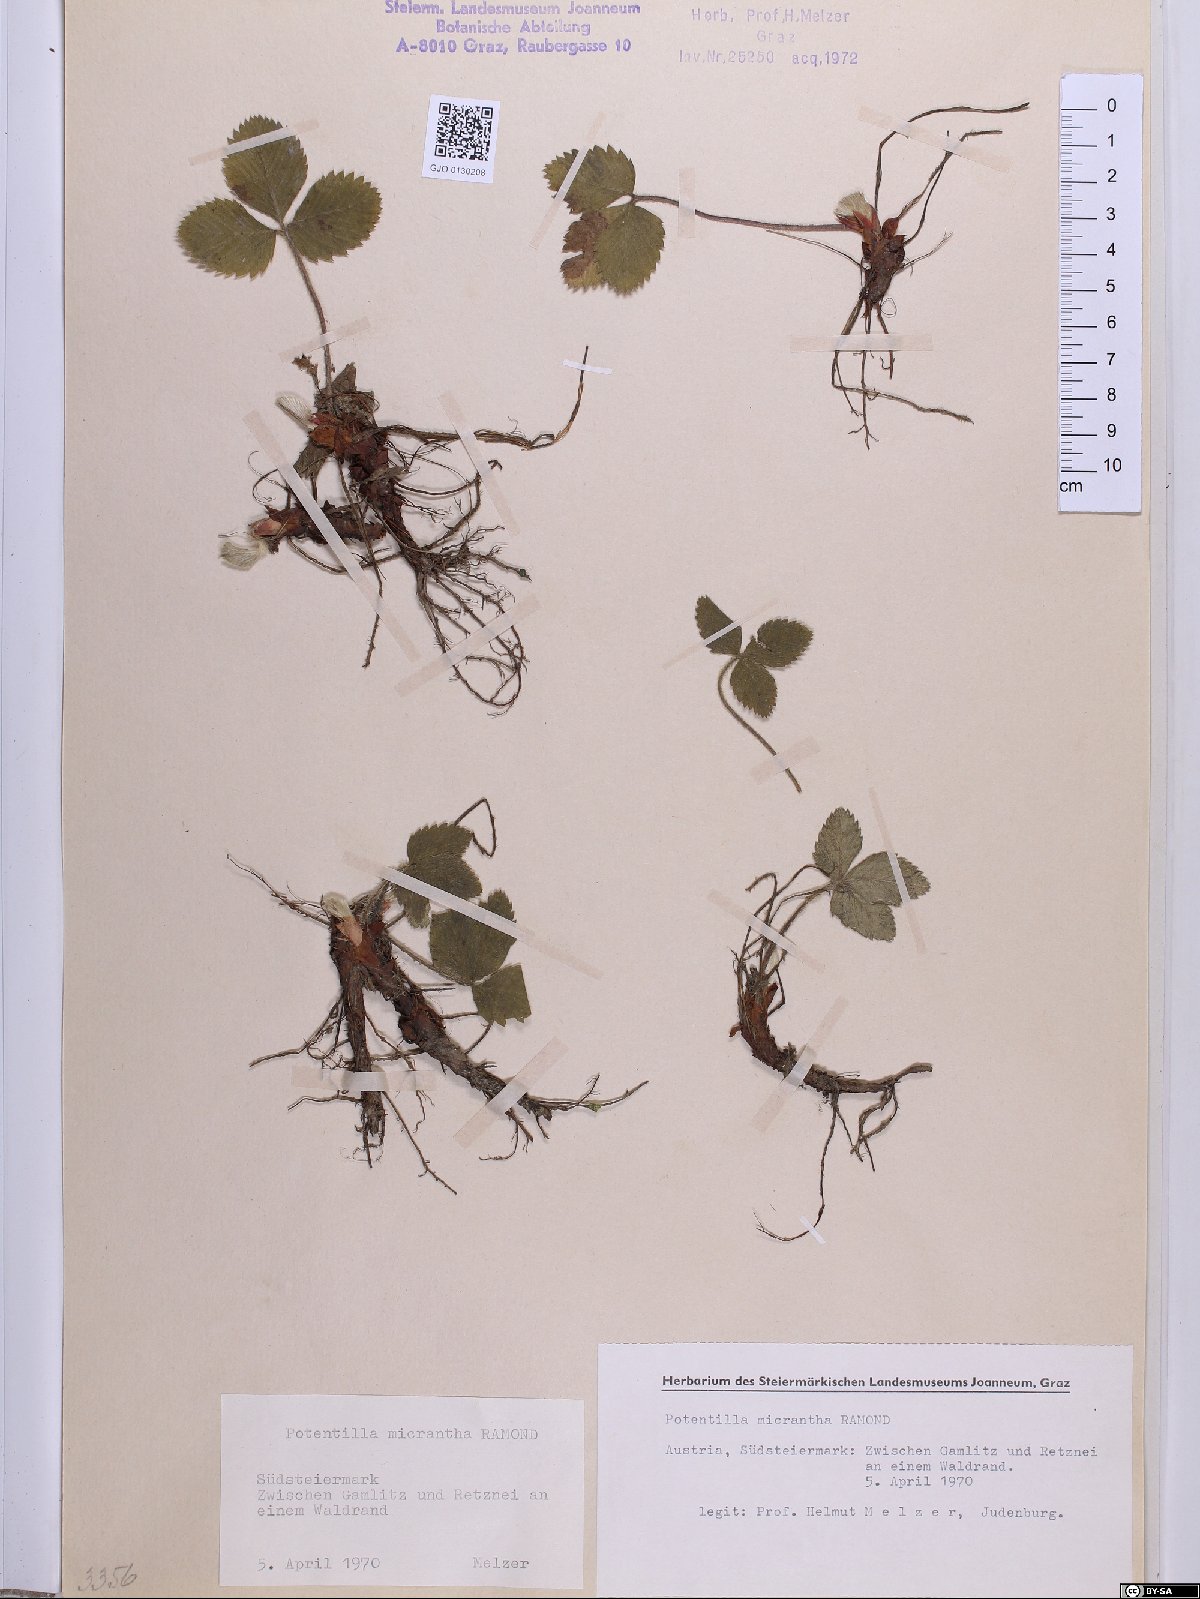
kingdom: Plantae
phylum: Tracheophyta
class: Magnoliopsida
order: Rosales
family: Rosaceae
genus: Potentilla
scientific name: Potentilla micrantha
